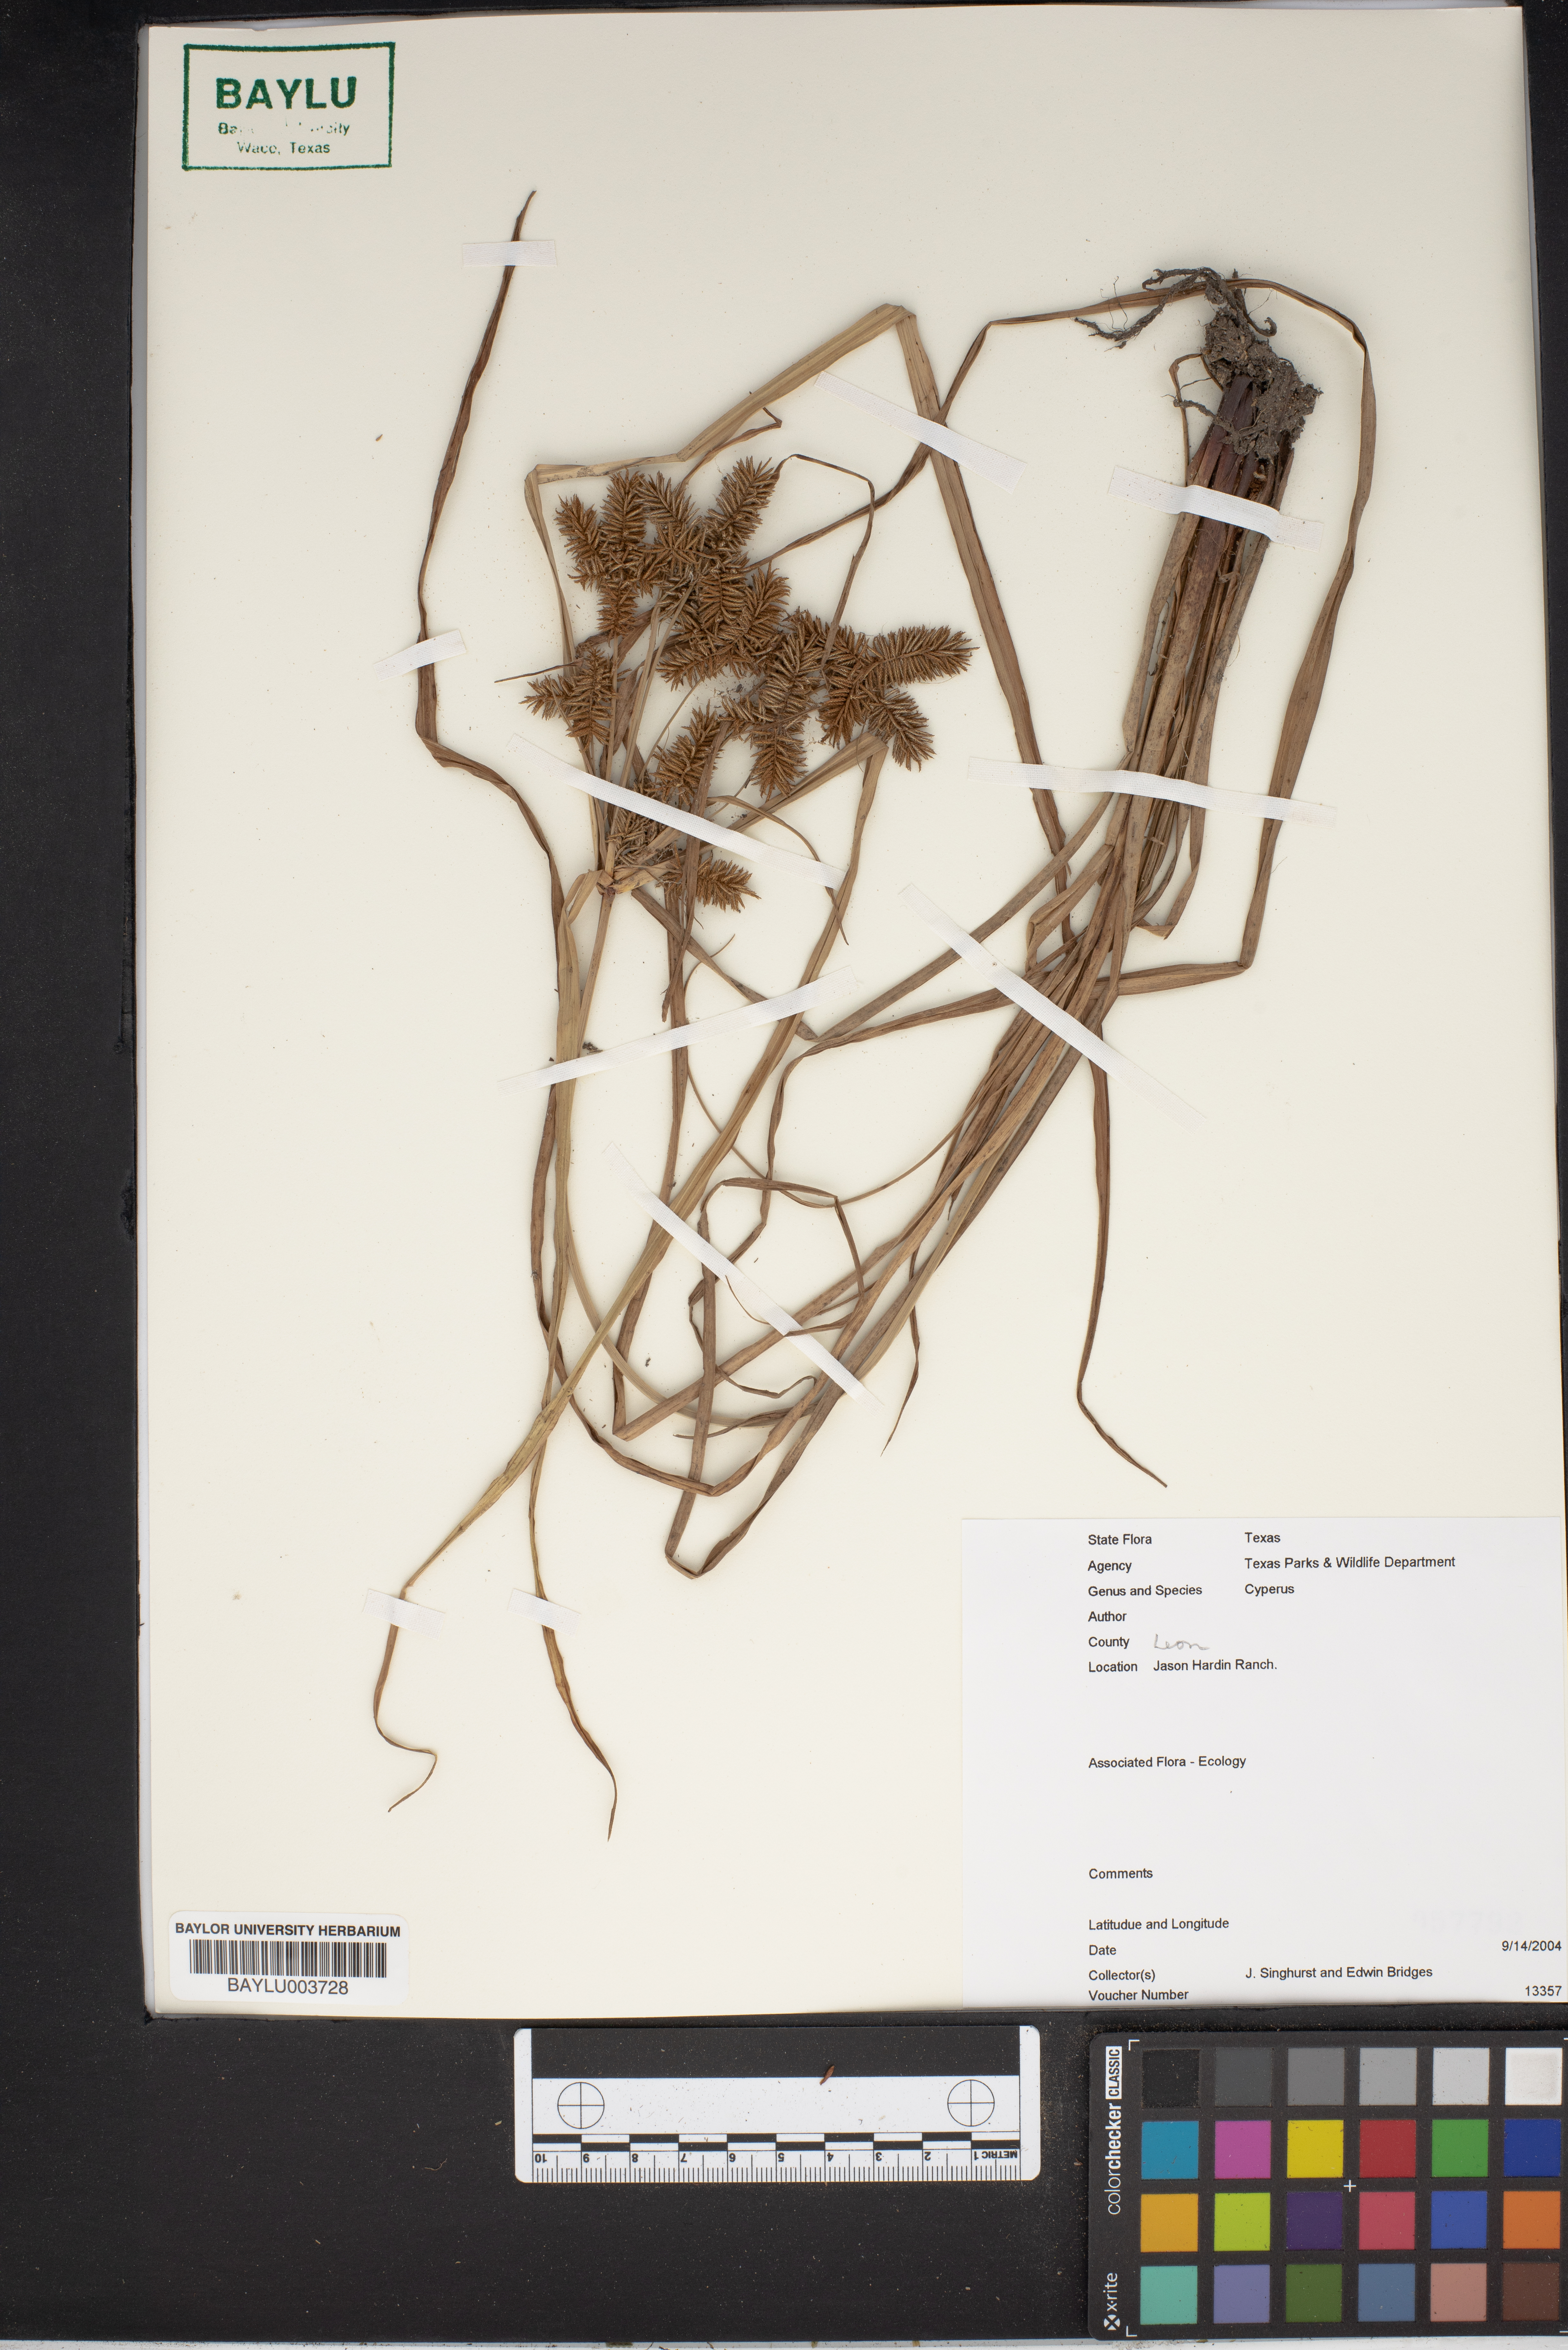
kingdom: Plantae
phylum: Tracheophyta
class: Liliopsida
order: Poales
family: Cyperaceae
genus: Cyperus
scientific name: Cyperus
